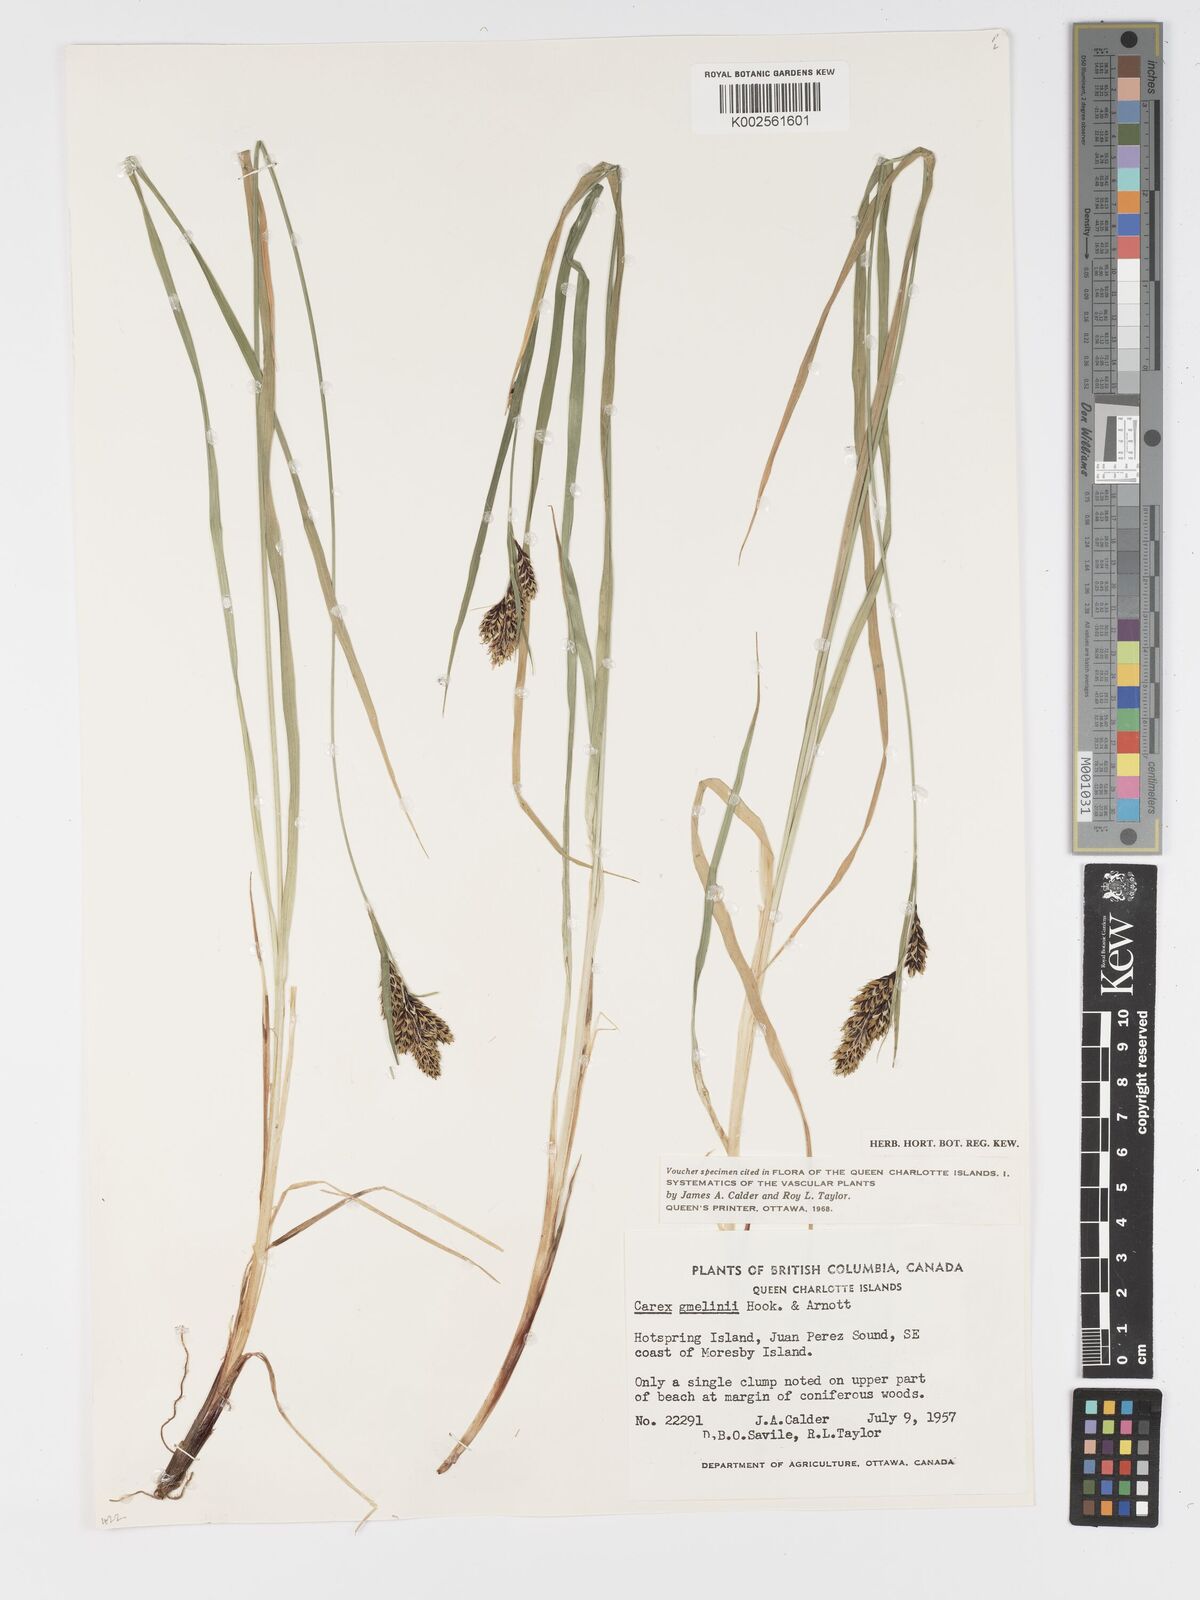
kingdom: Plantae
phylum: Tracheophyta
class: Liliopsida
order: Poales
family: Cyperaceae
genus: Carex
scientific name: Carex gmelinii
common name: Gmelin's sedge
